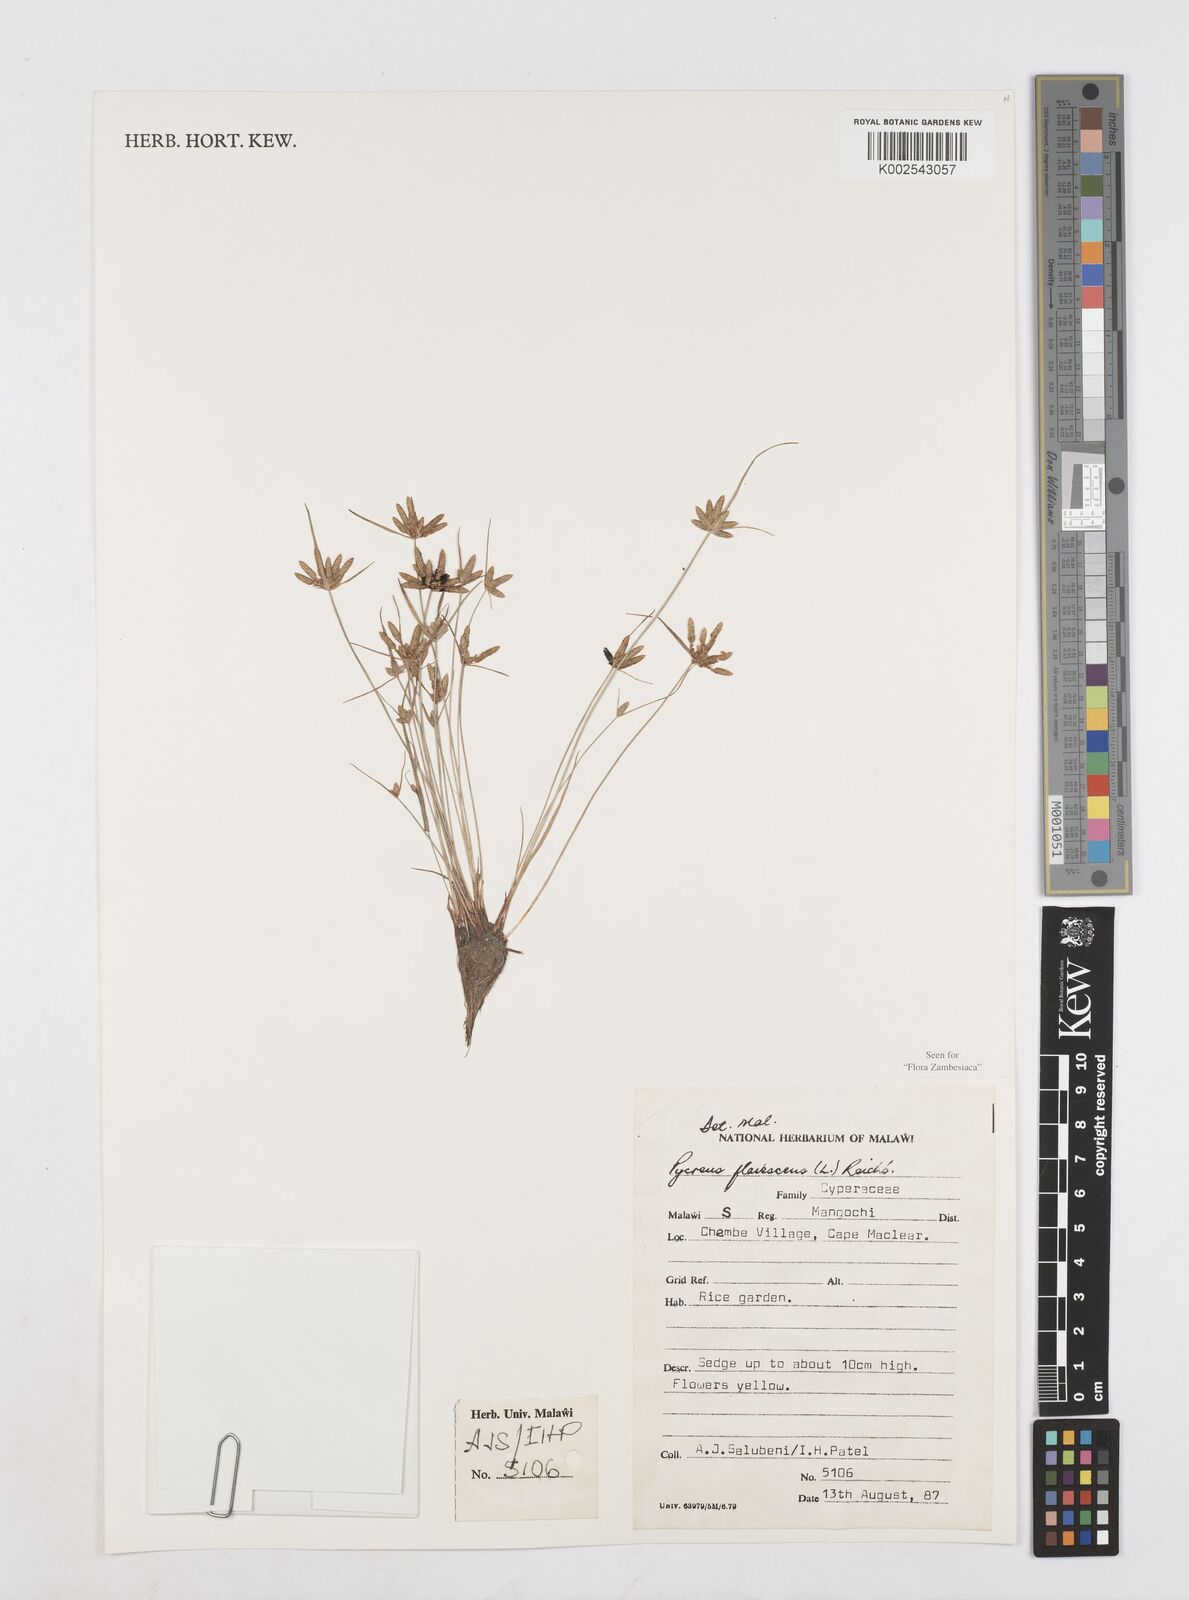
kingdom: Plantae
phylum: Tracheophyta
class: Liliopsida
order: Poales
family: Cyperaceae
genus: Cyperus
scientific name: Cyperus flavescens
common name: Yellow galingale
